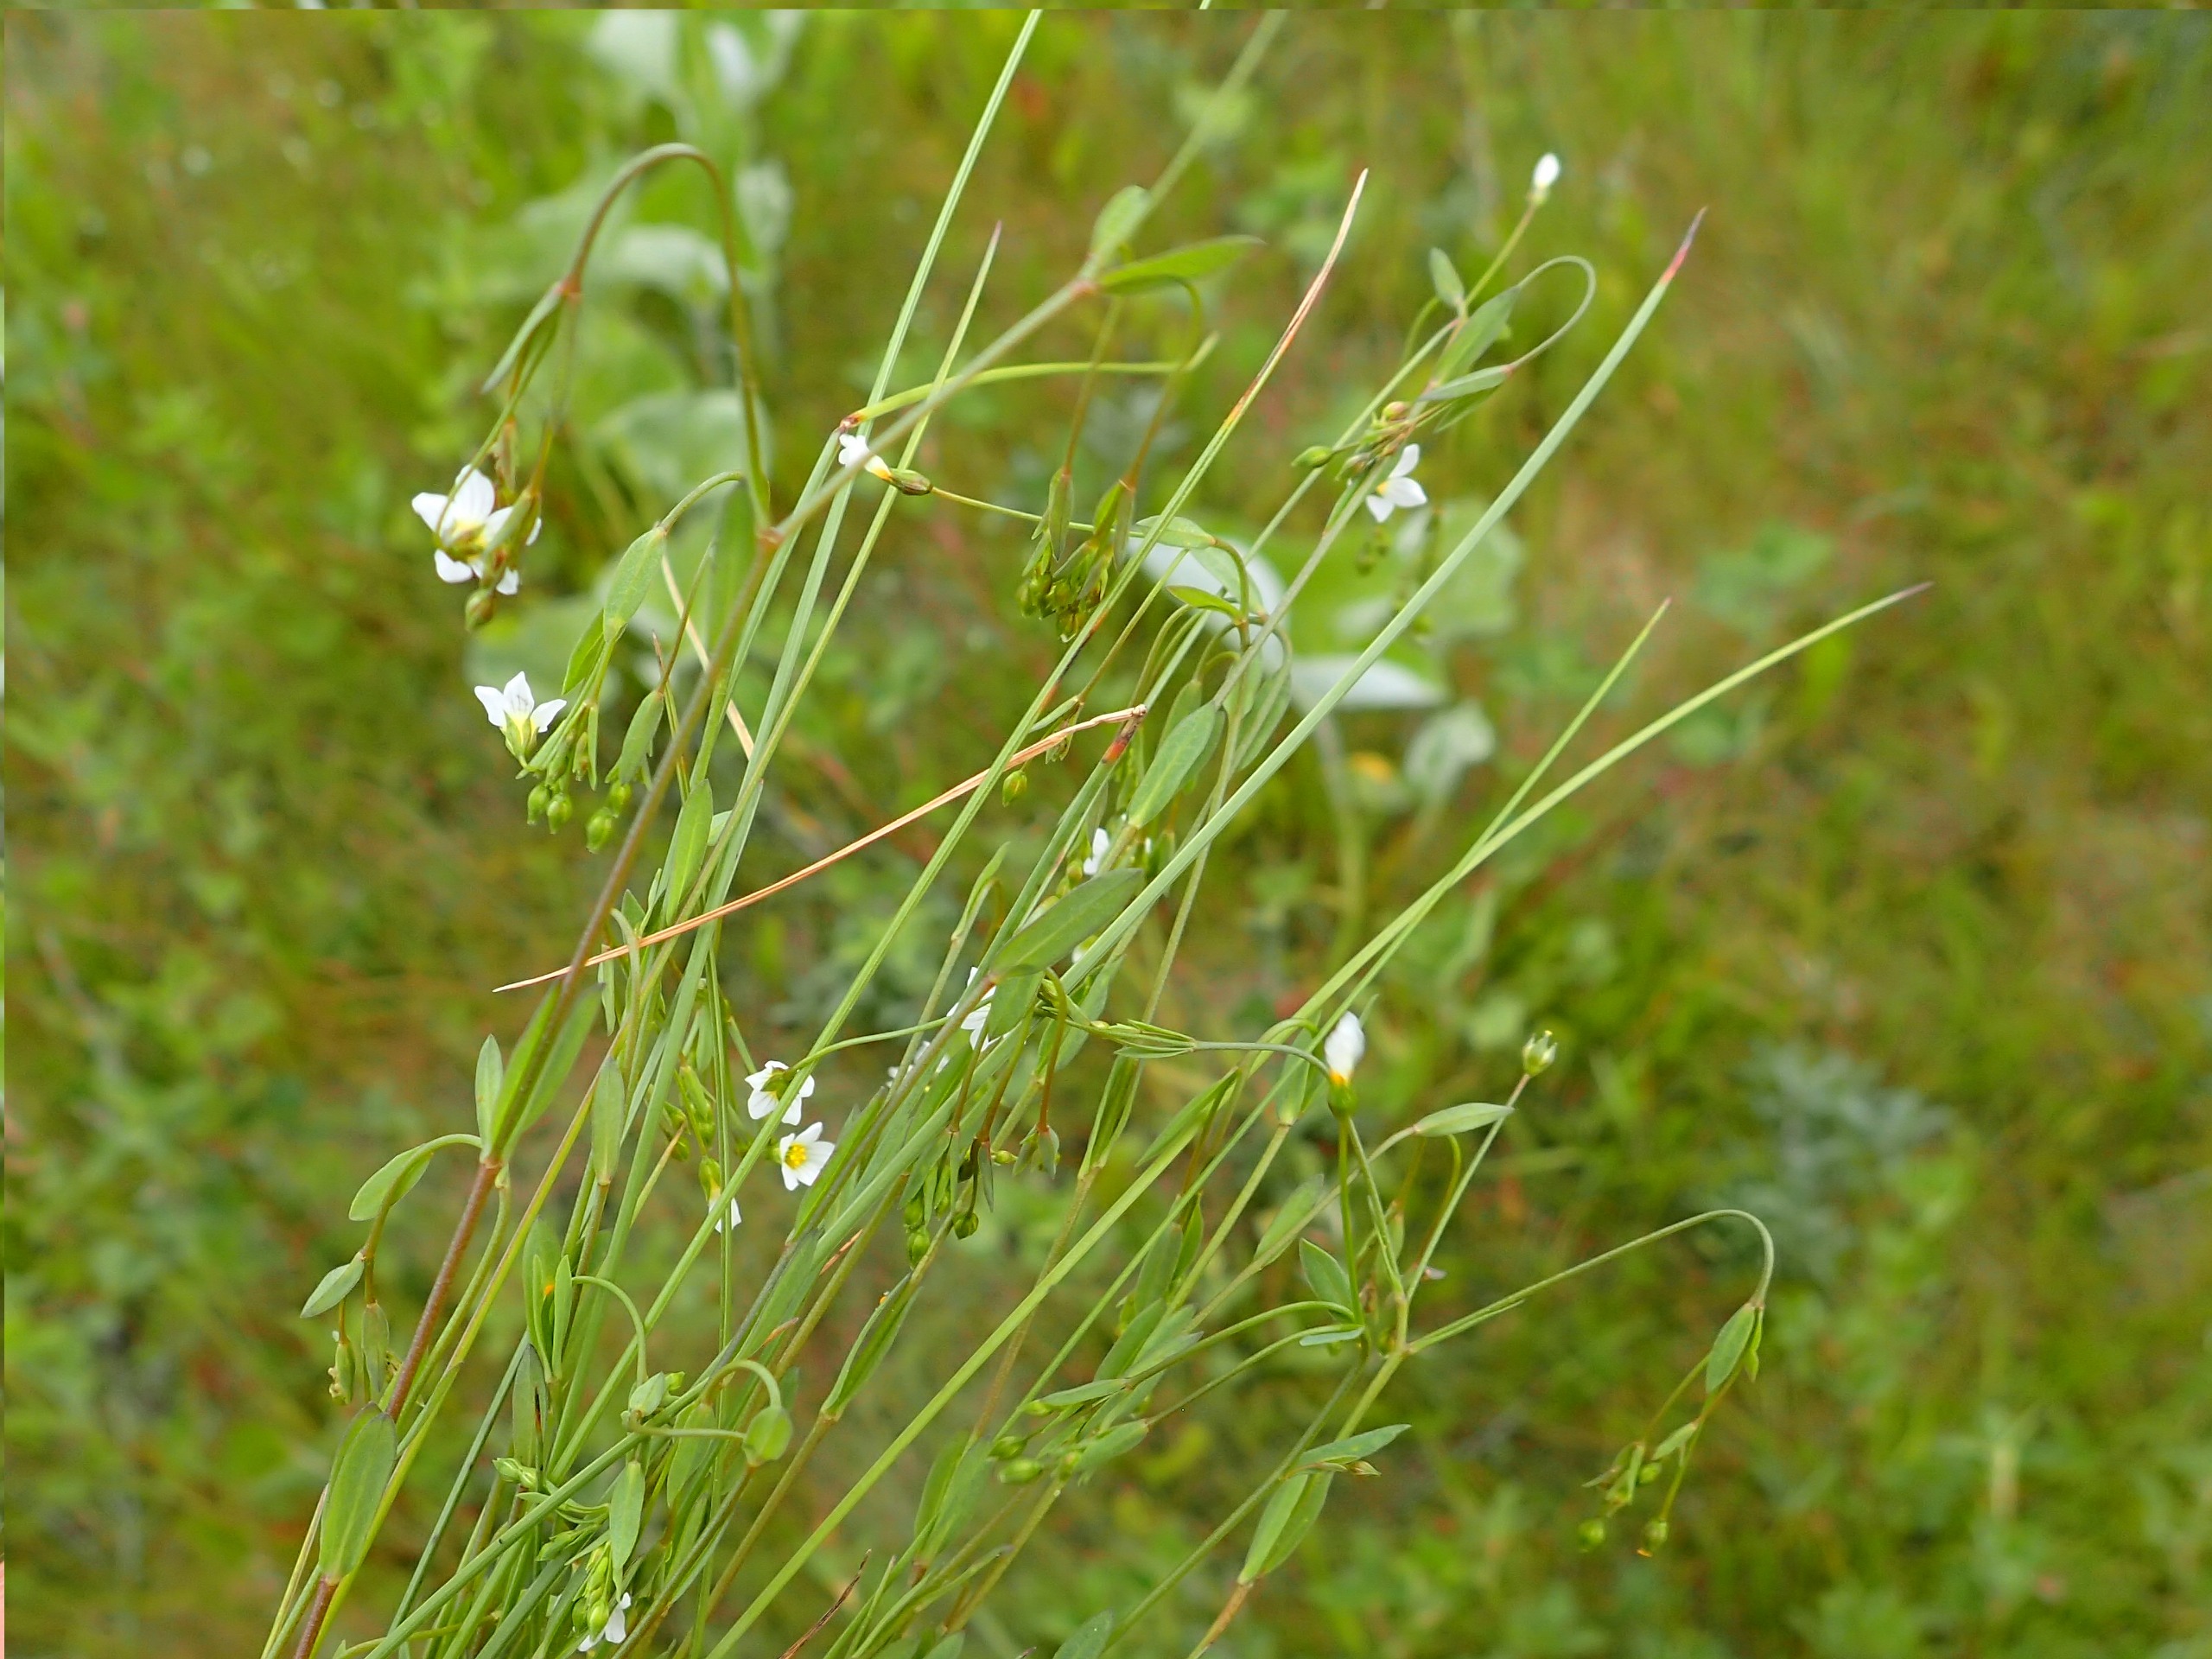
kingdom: Plantae
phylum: Tracheophyta
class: Magnoliopsida
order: Malpighiales
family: Linaceae
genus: Linum
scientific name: Linum catharticum
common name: Vild hør
